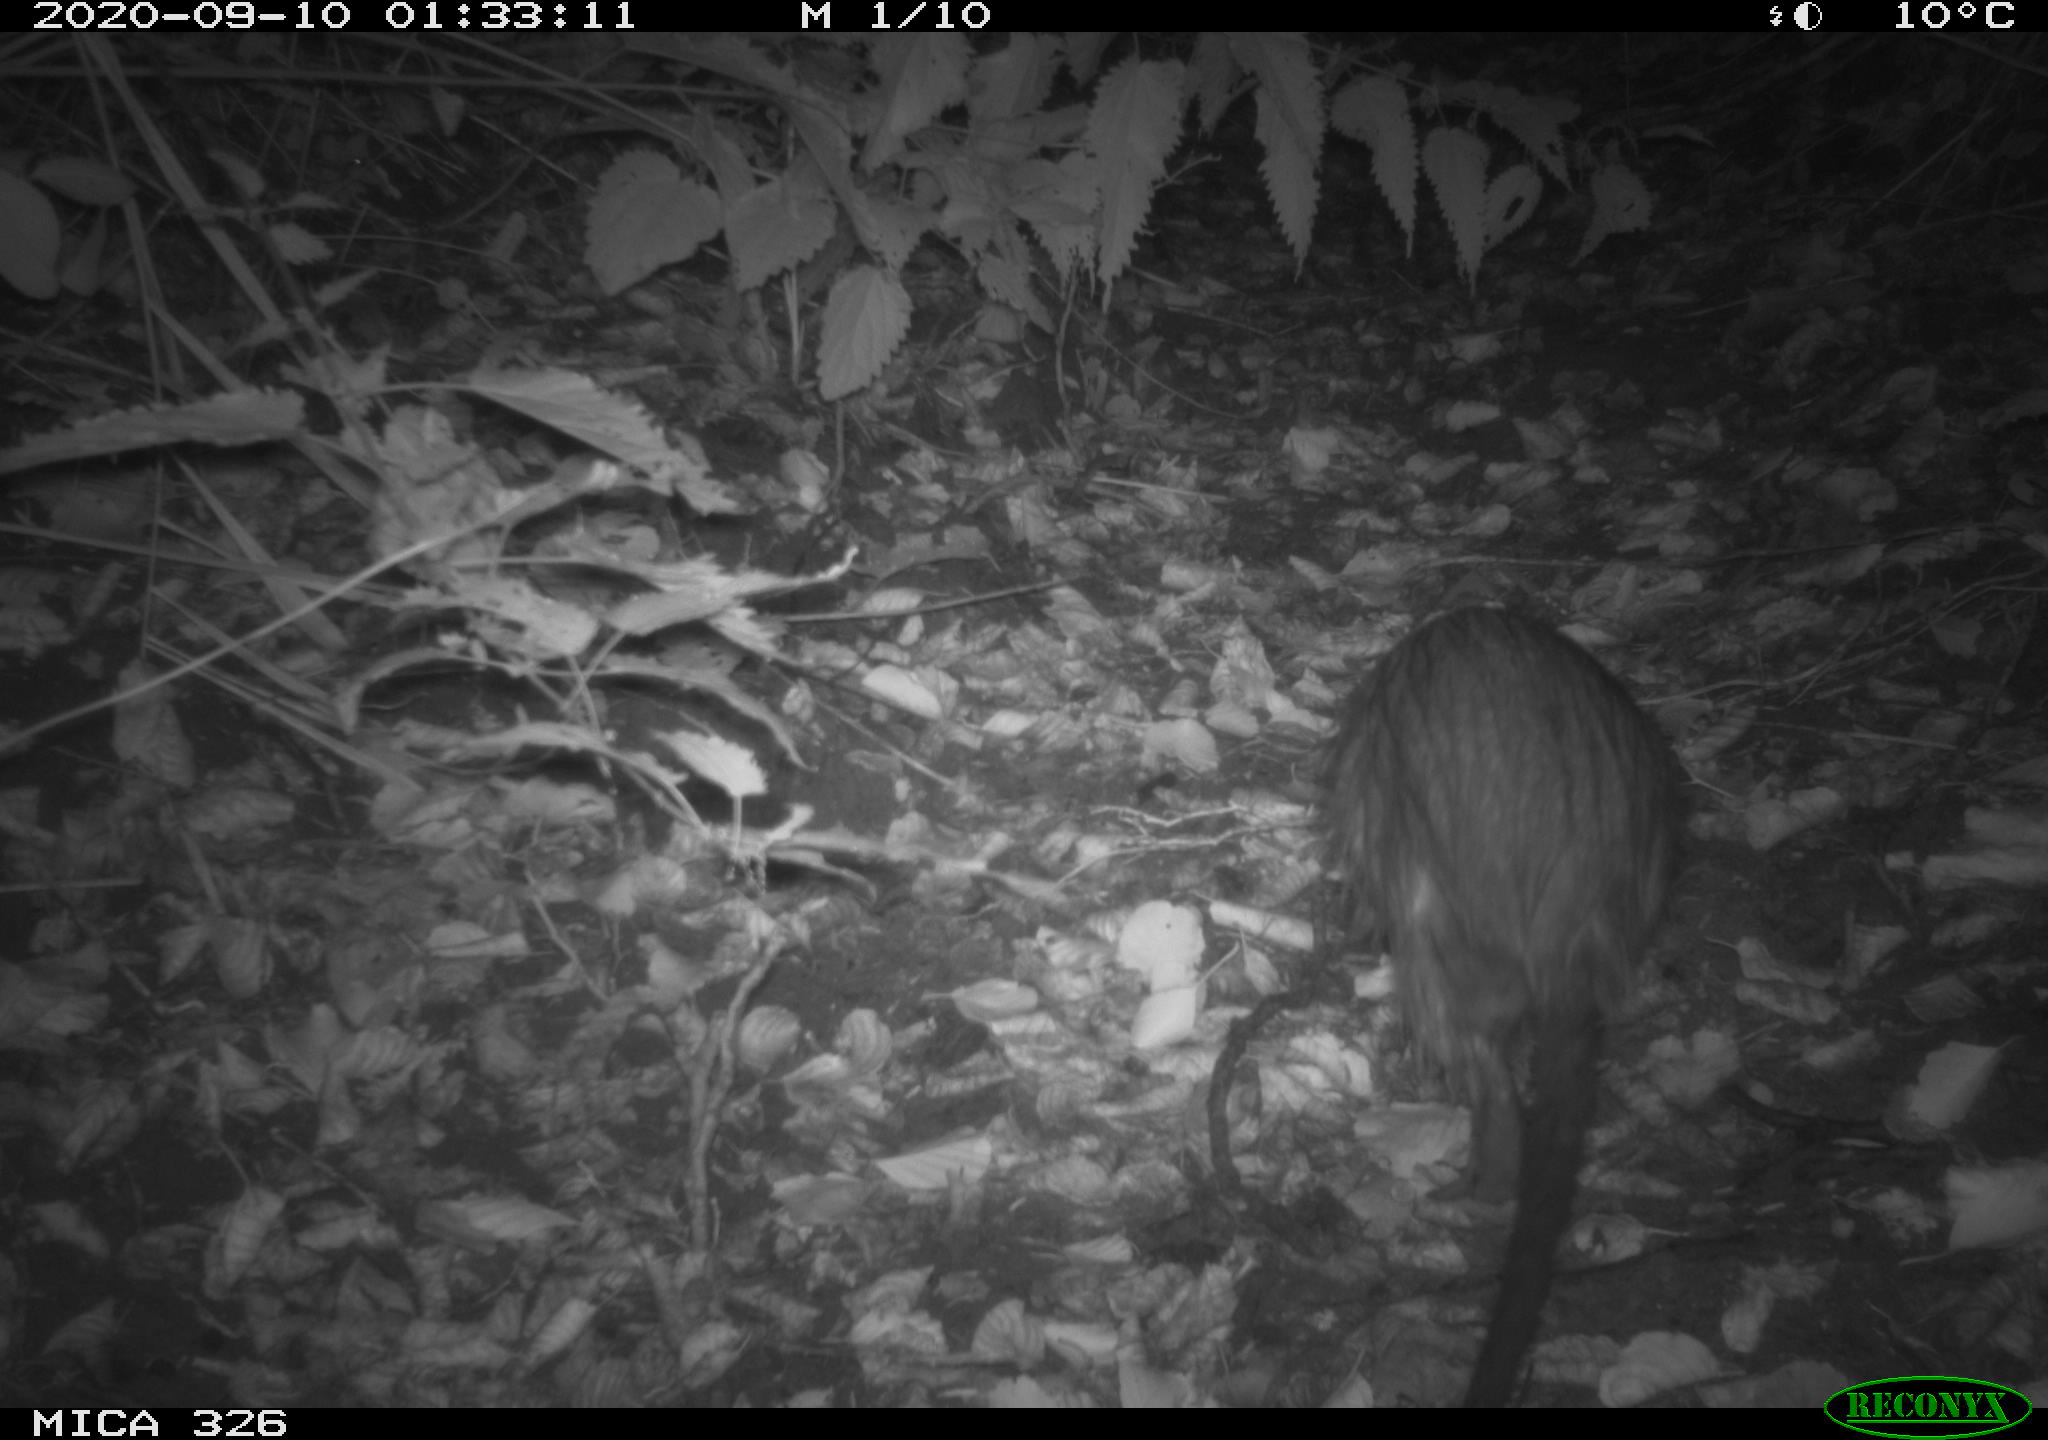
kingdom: Animalia
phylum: Chordata
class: Mammalia
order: Rodentia
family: Myocastoridae
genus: Myocastor
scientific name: Myocastor coypus
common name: Coypu
